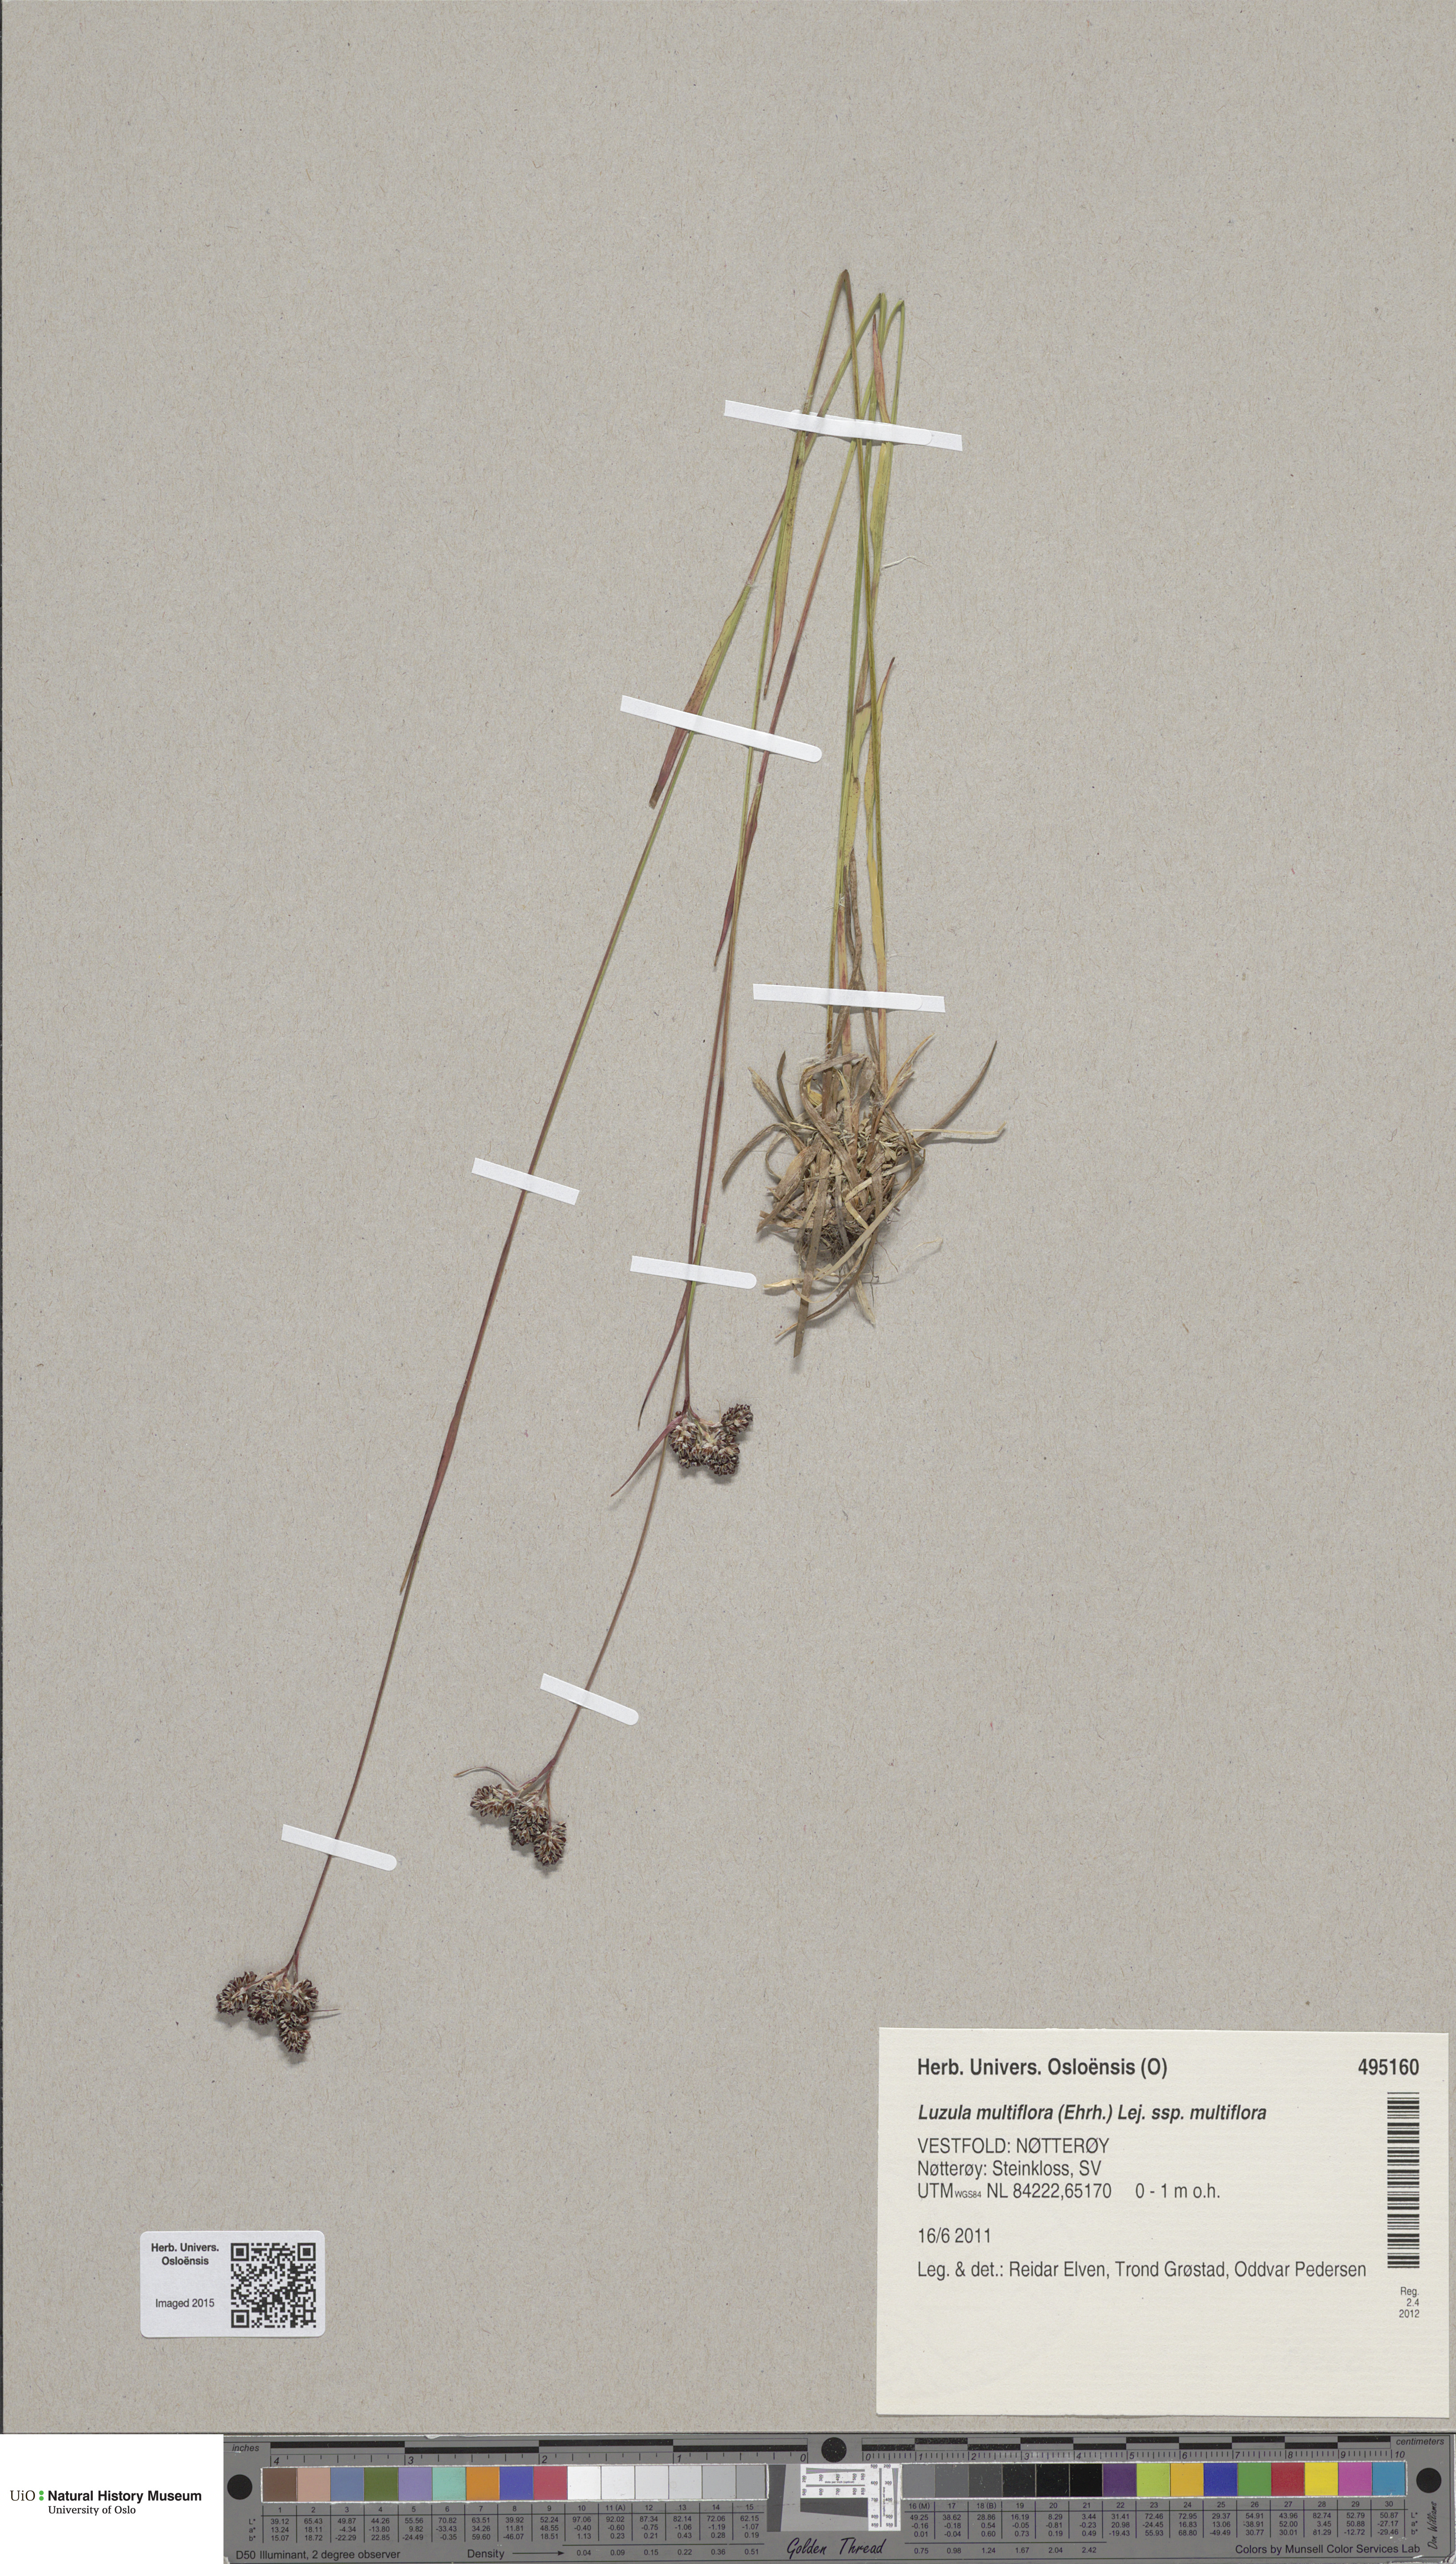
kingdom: Plantae
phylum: Tracheophyta
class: Liliopsida
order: Poales
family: Juncaceae
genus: Luzula
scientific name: Luzula multiflora
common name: Heath wood-rush
